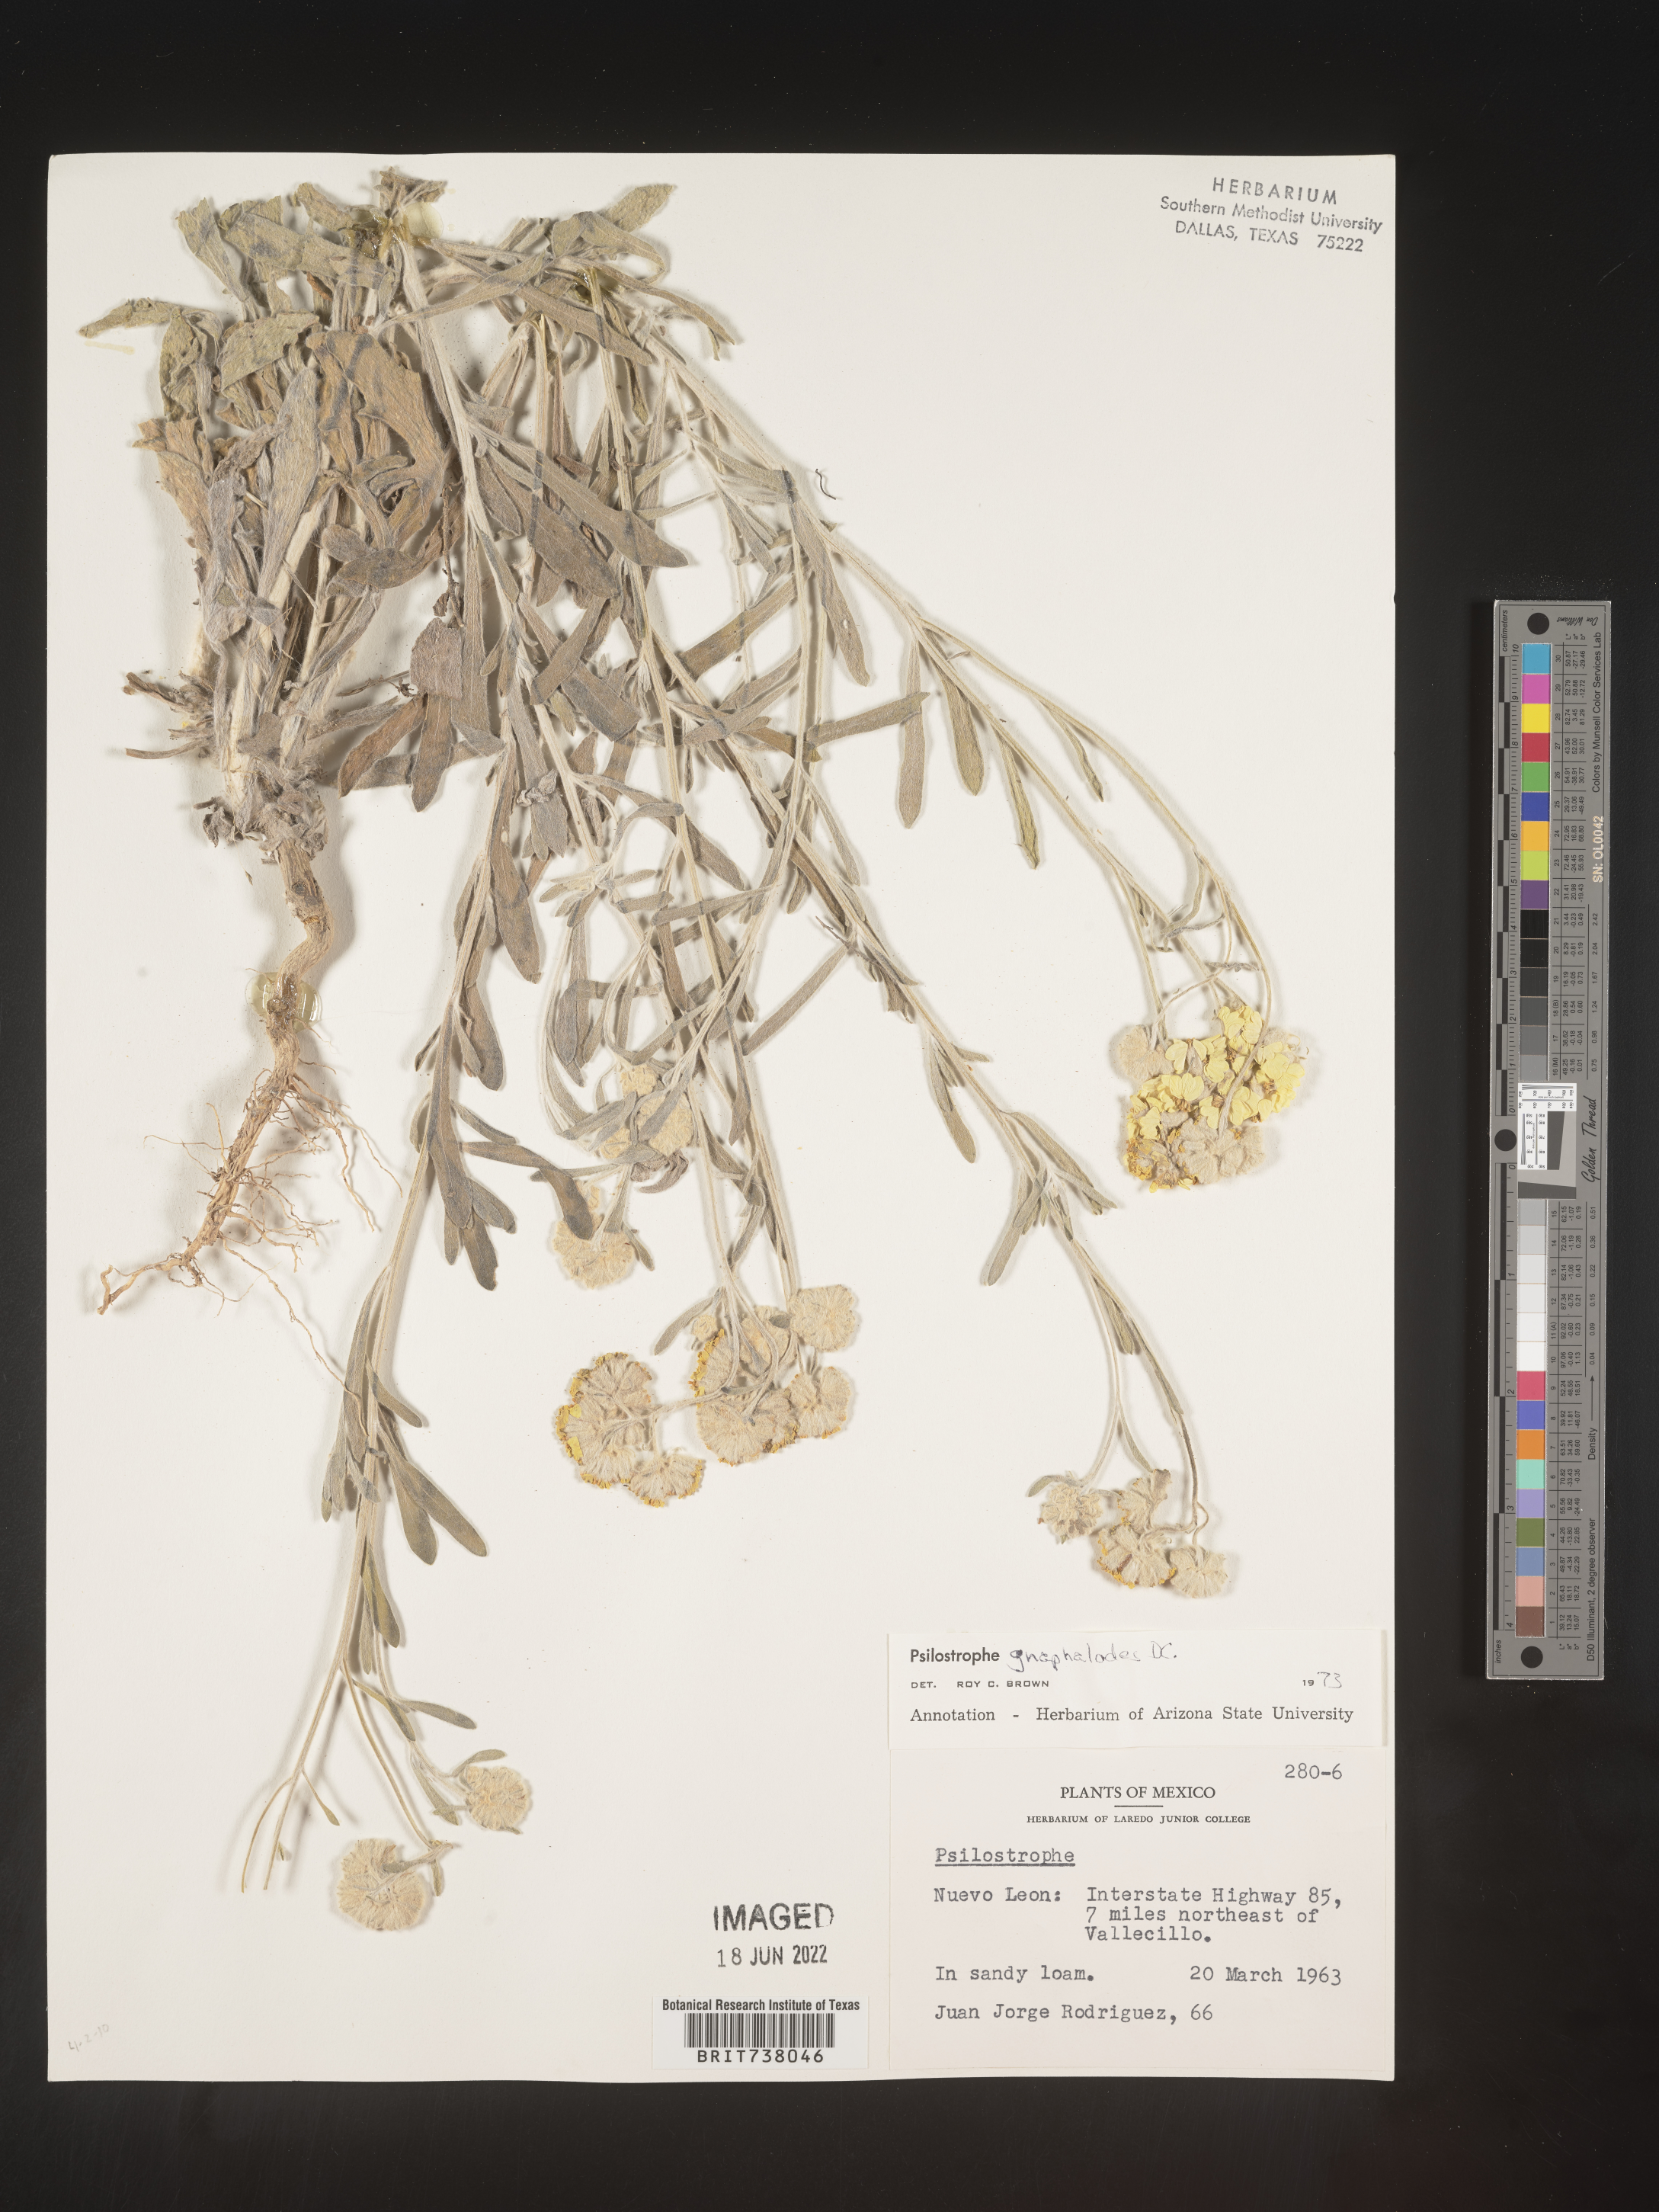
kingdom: Plantae
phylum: Tracheophyta
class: Magnoliopsida
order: Asterales
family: Asteraceae
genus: Psilostrophe
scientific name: Psilostrophe
